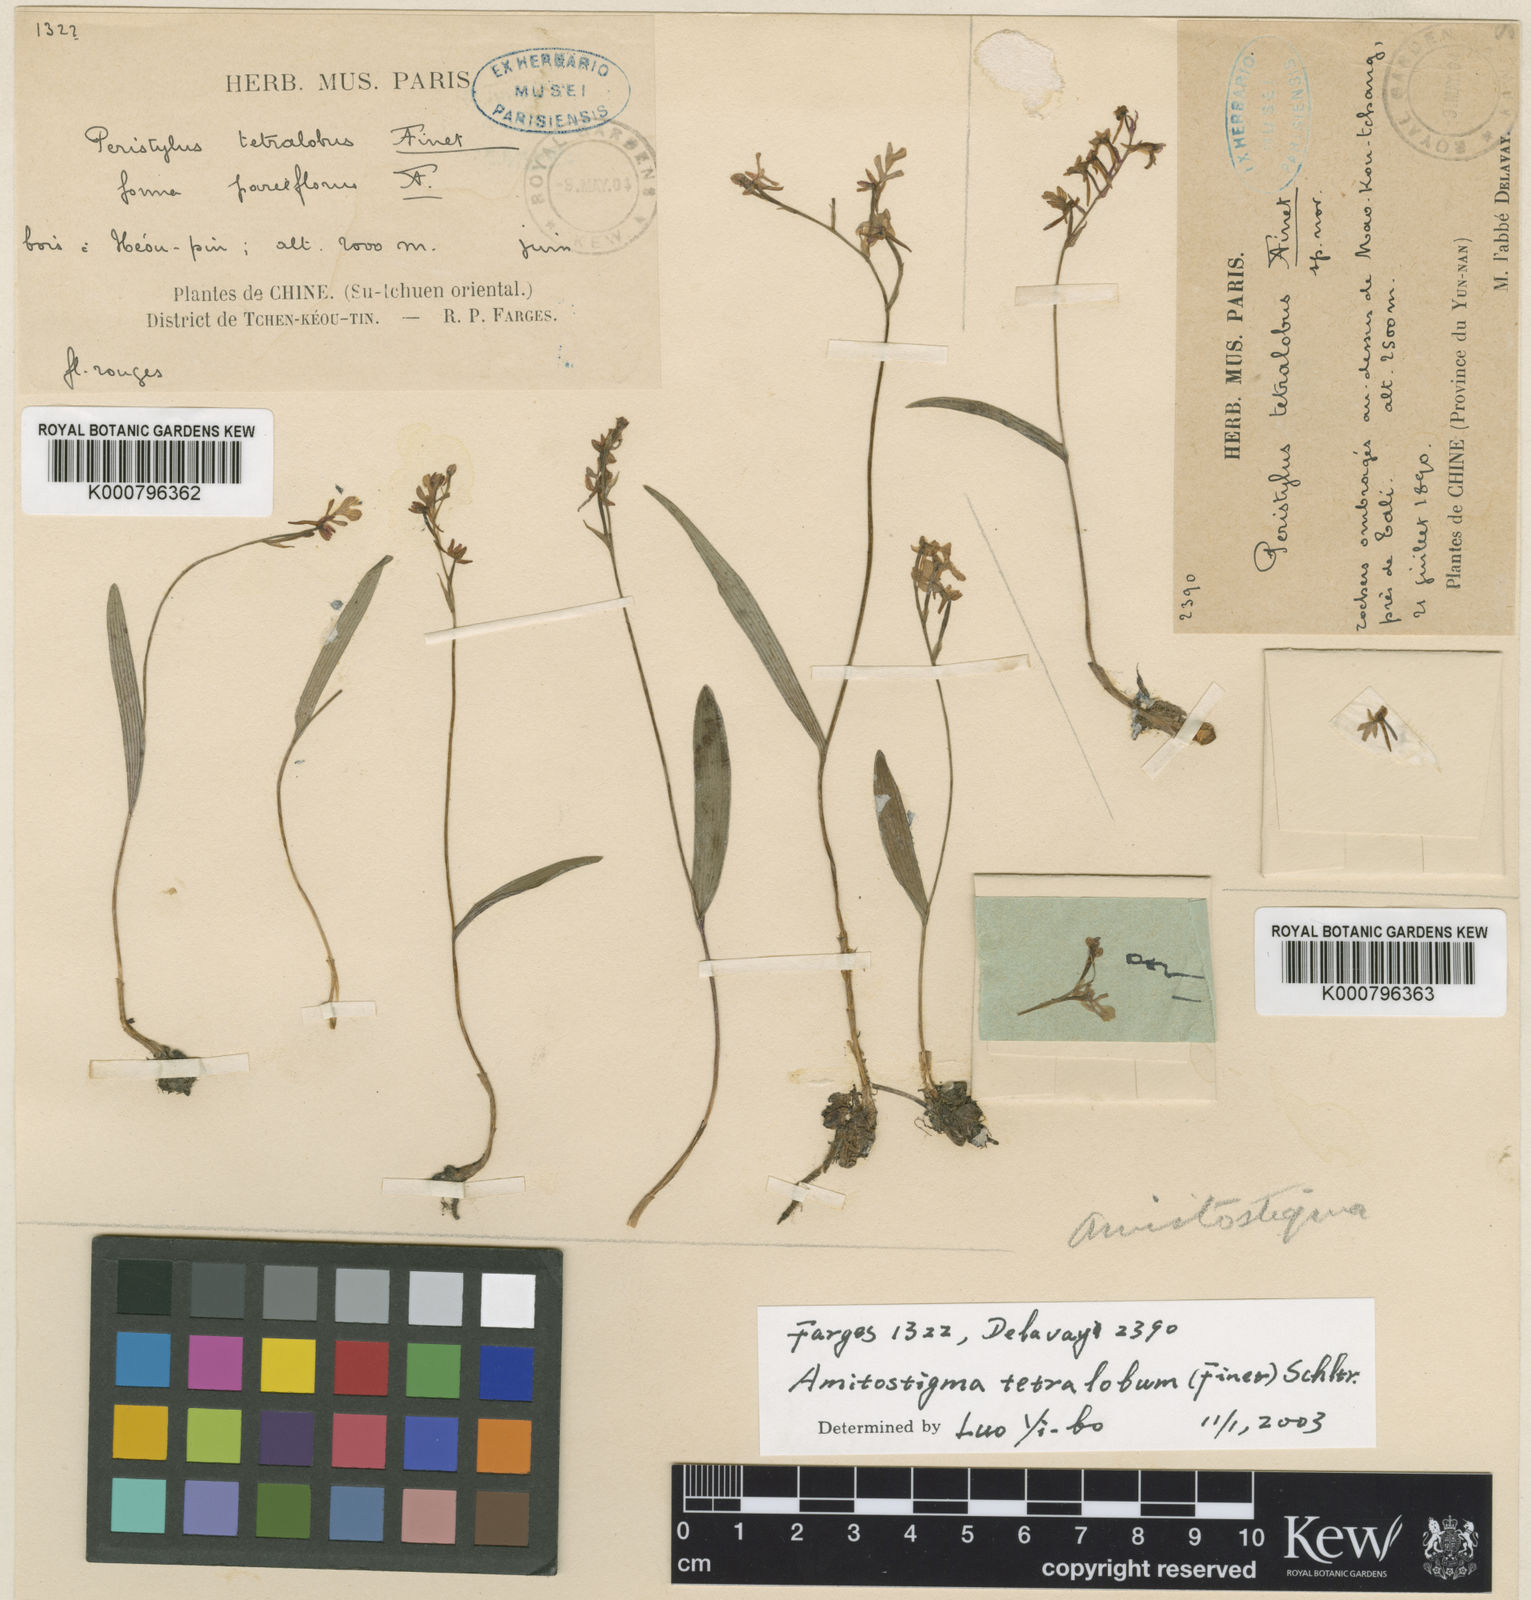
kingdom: Plantae
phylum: Tracheophyta
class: Liliopsida
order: Asparagales
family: Orchidaceae
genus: Hemipilia
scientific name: Hemipilia tetraloba
